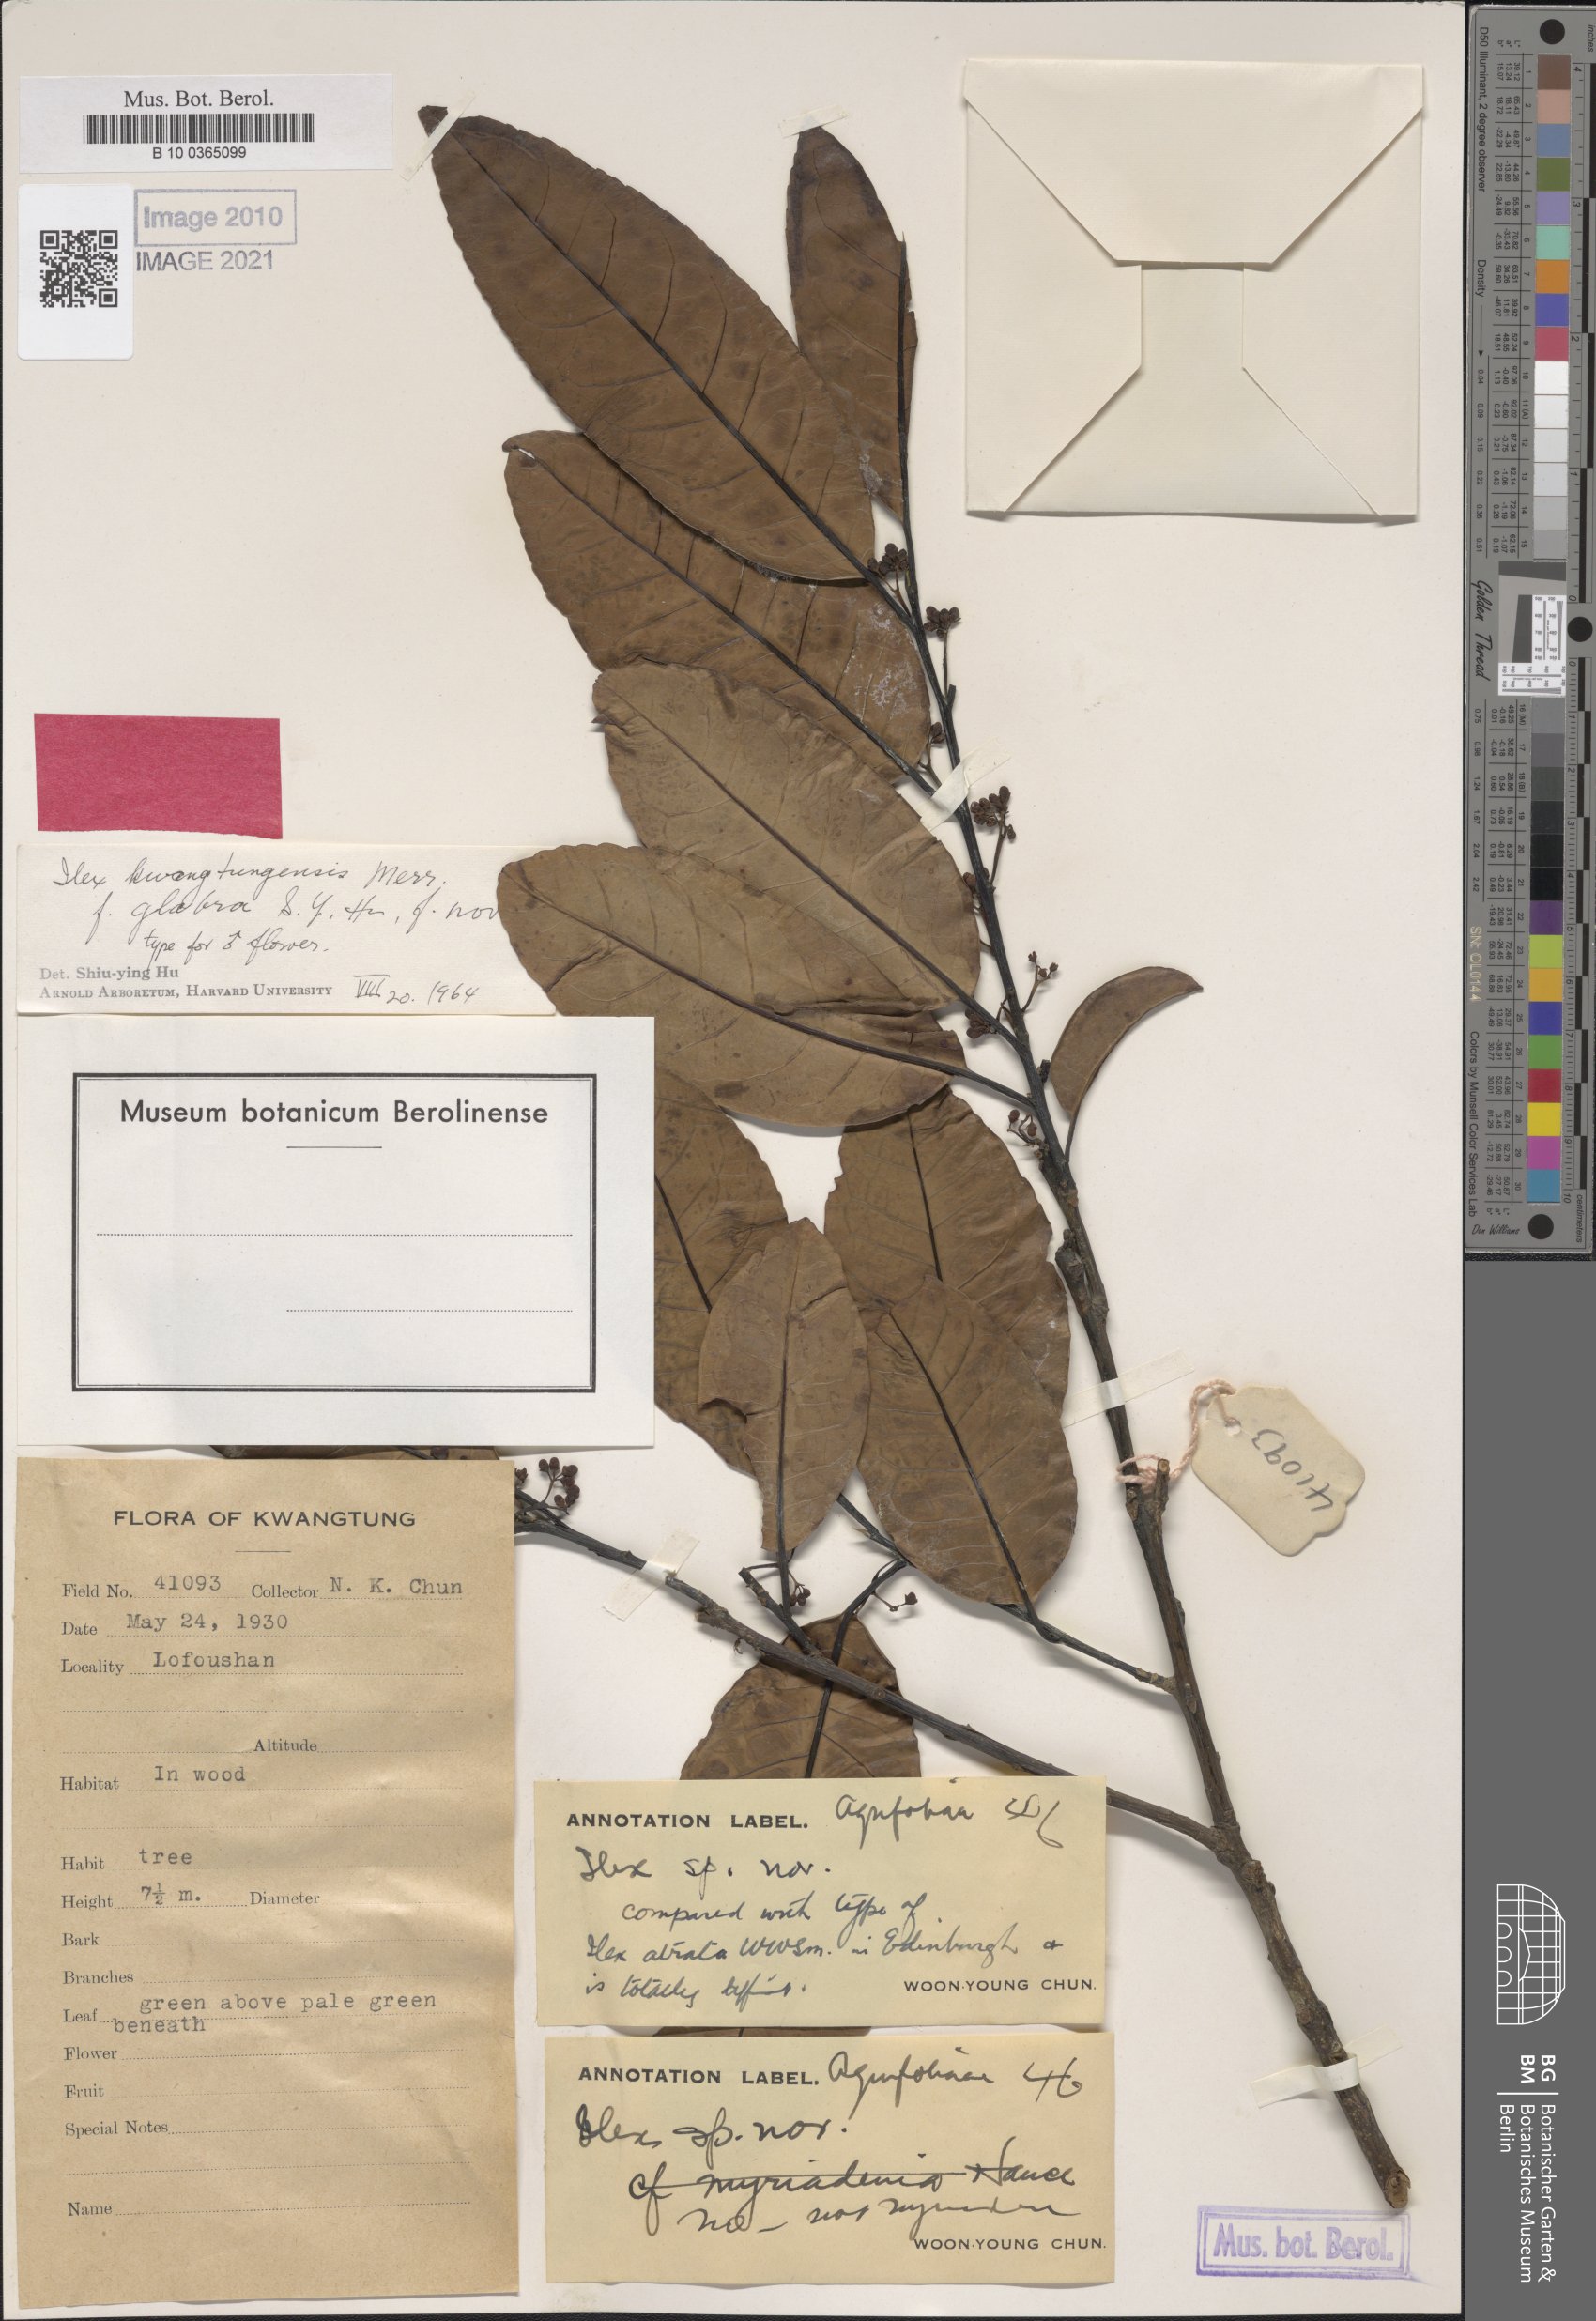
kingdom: Plantae
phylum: Tracheophyta
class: Magnoliopsida
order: Aquifoliales
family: Aquifoliaceae
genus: Ilex
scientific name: Ilex kwangtungensis
